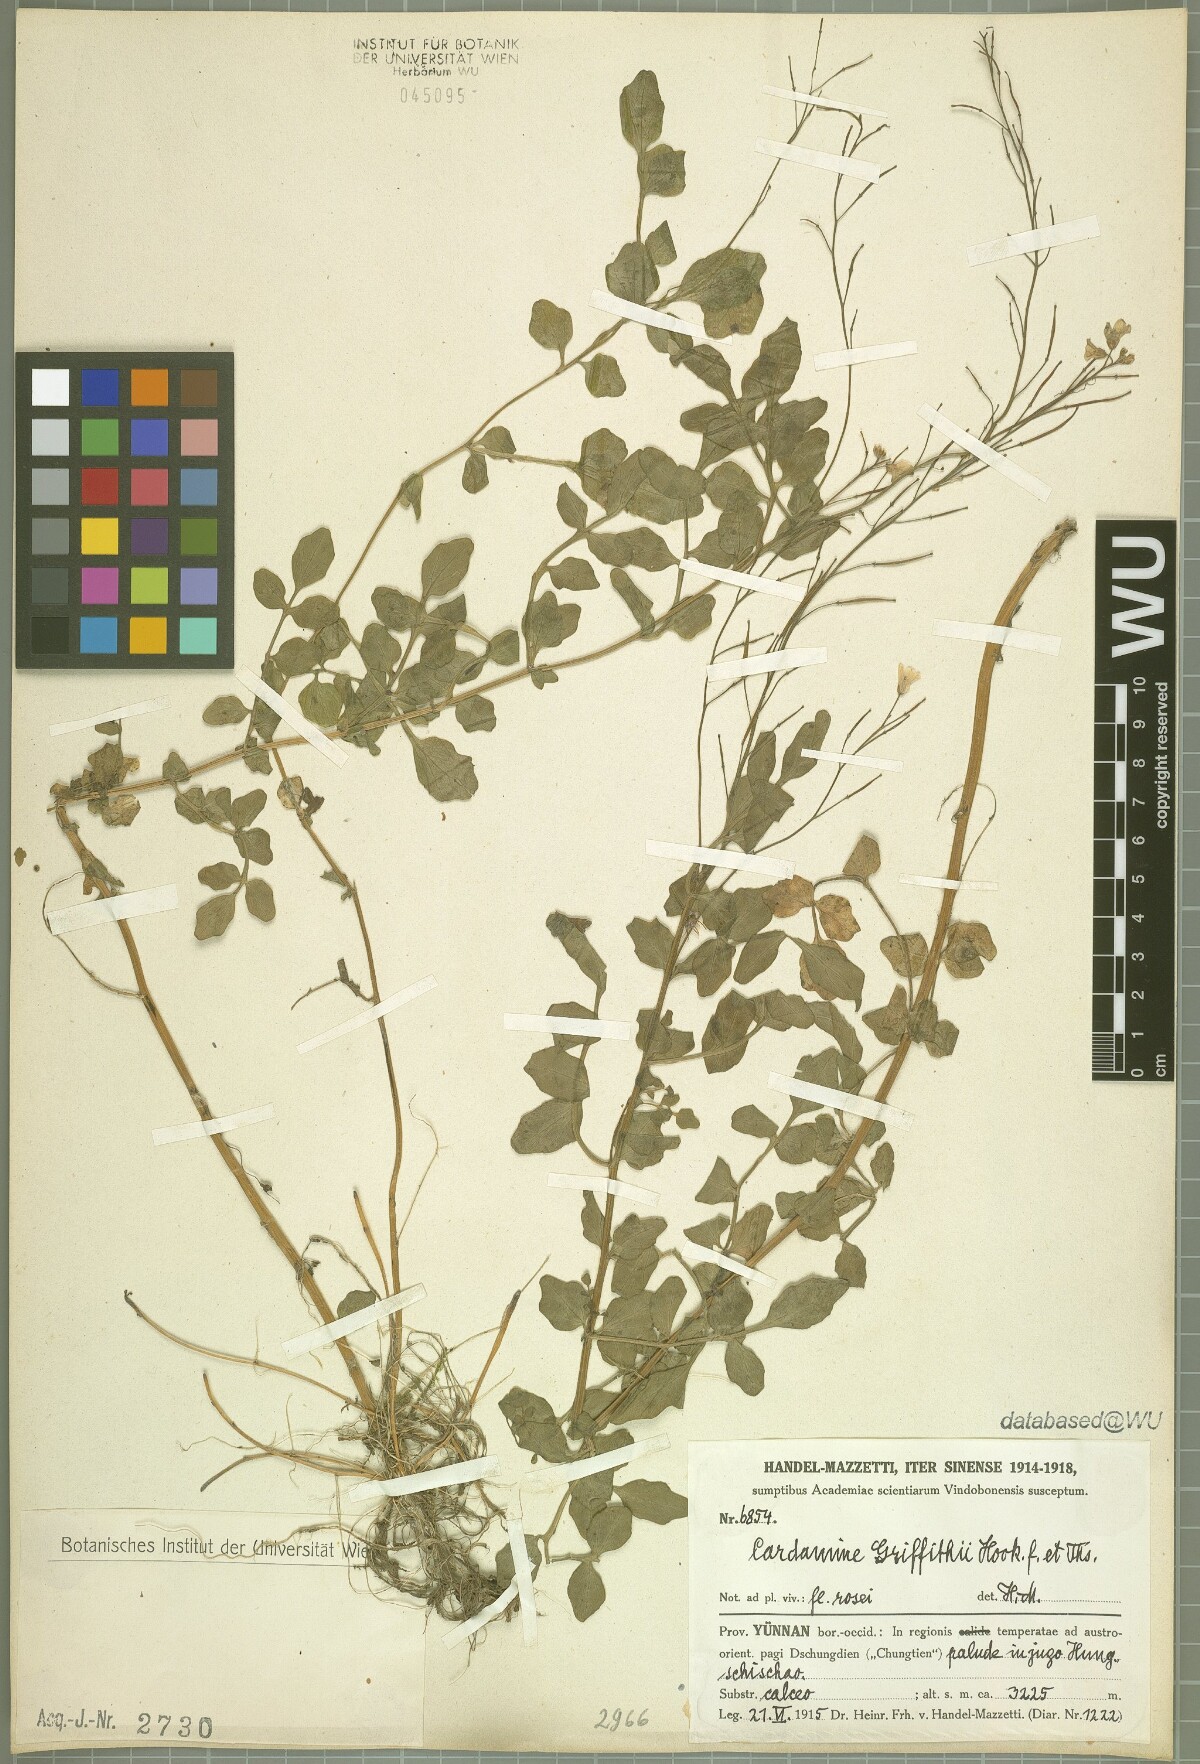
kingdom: Plantae
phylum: Tracheophyta
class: Magnoliopsida
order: Brassicales
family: Brassicaceae
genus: Cardamine
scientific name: Cardamine griffithii
